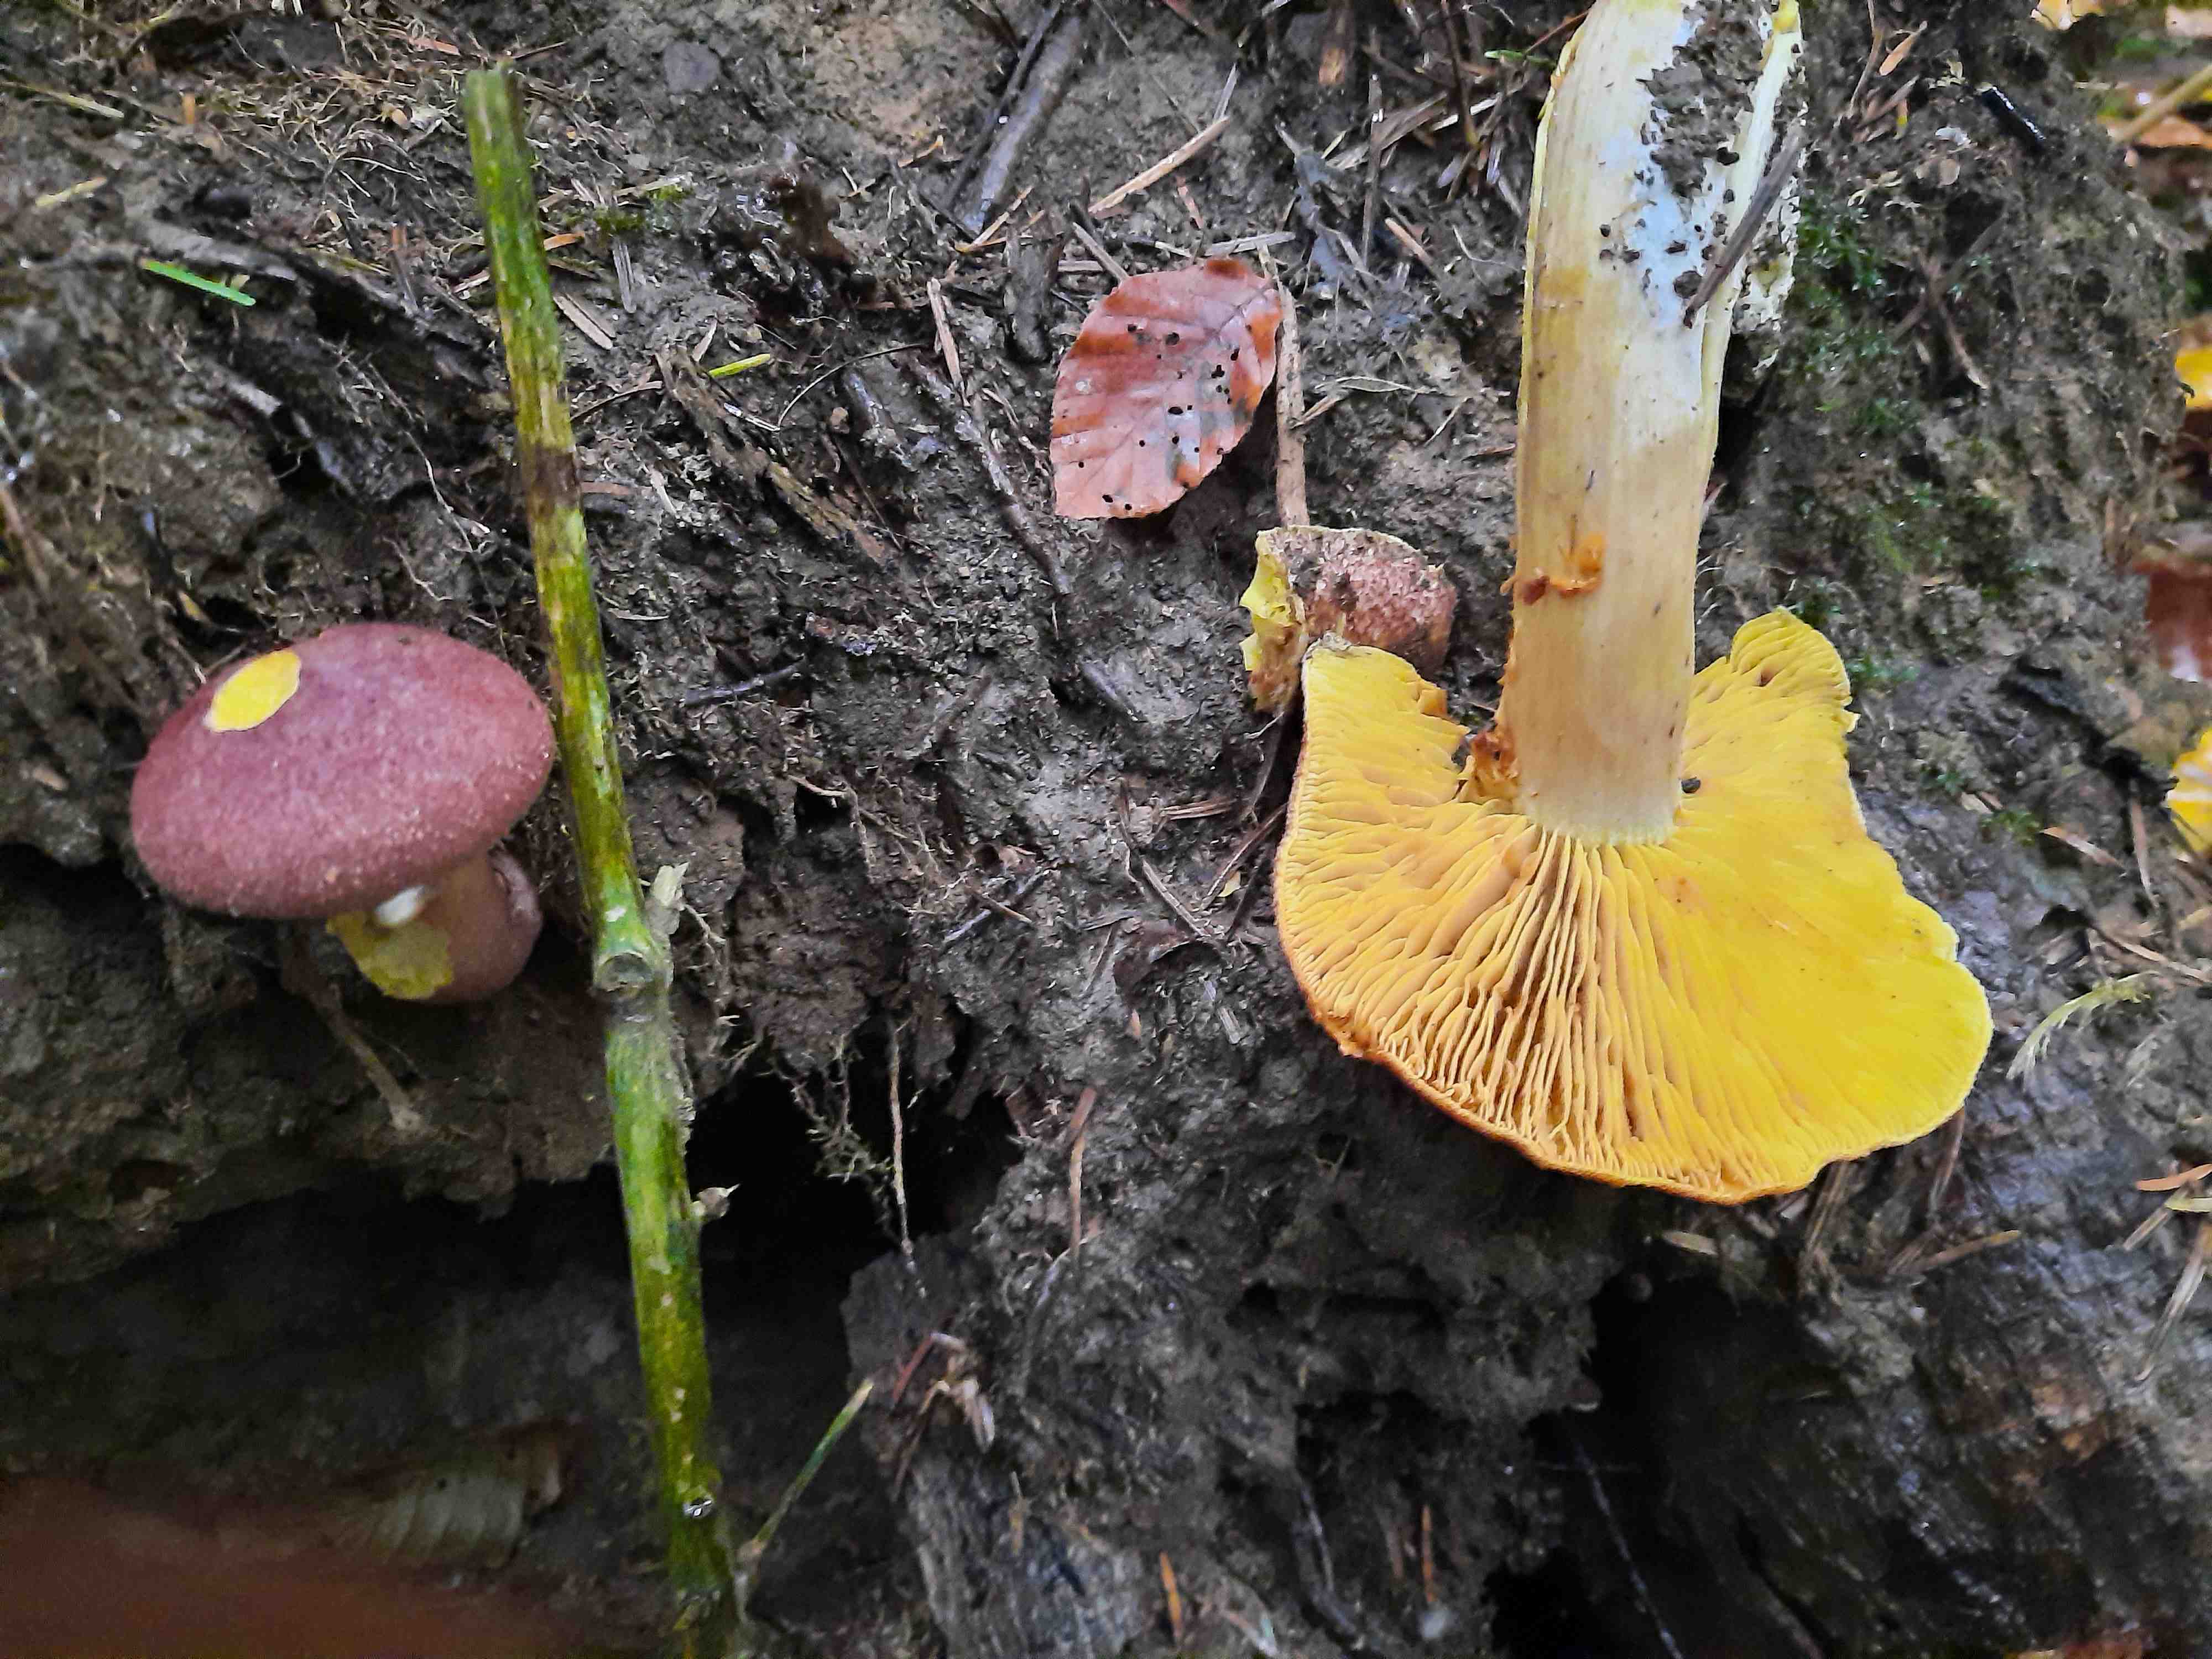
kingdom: Fungi
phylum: Basidiomycota
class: Agaricomycetes
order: Agaricales
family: Tricholomataceae
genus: Tricholomopsis
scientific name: Tricholomopsis rutilans
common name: purpur-væbnerhat
